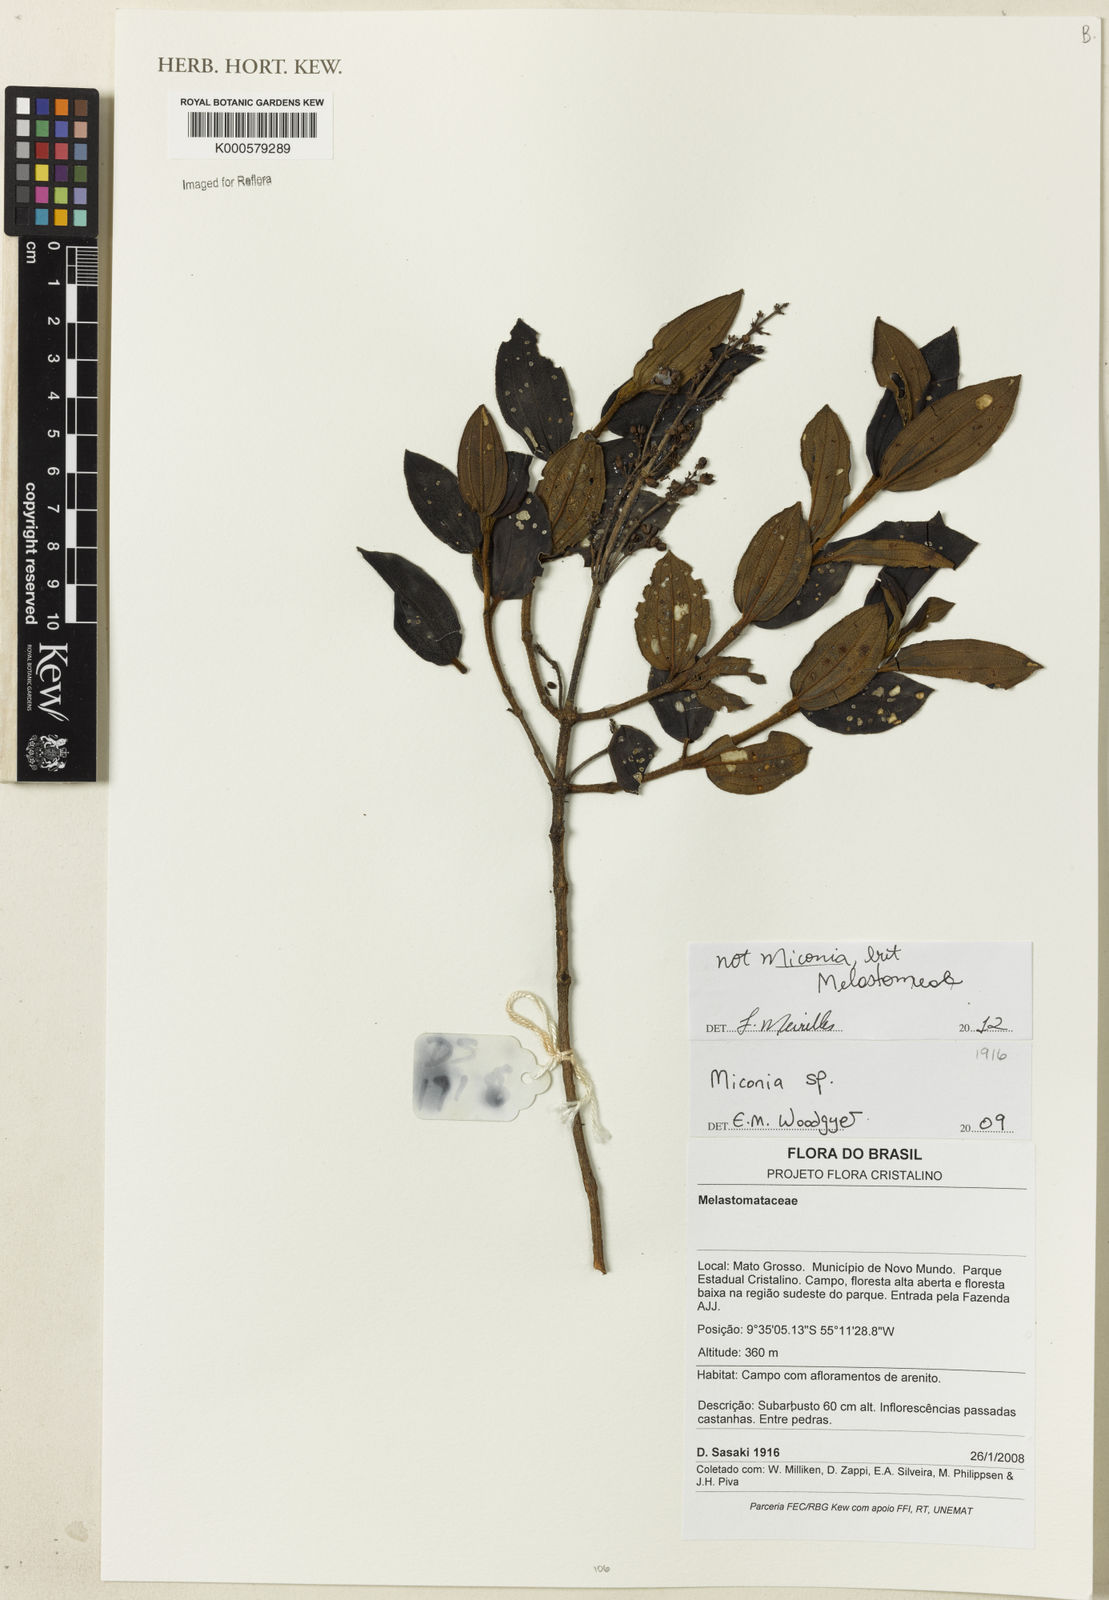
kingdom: Plantae
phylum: Tracheophyta
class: Magnoliopsida
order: Myrtales
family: Melastomataceae
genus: Miconia
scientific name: Miconia
